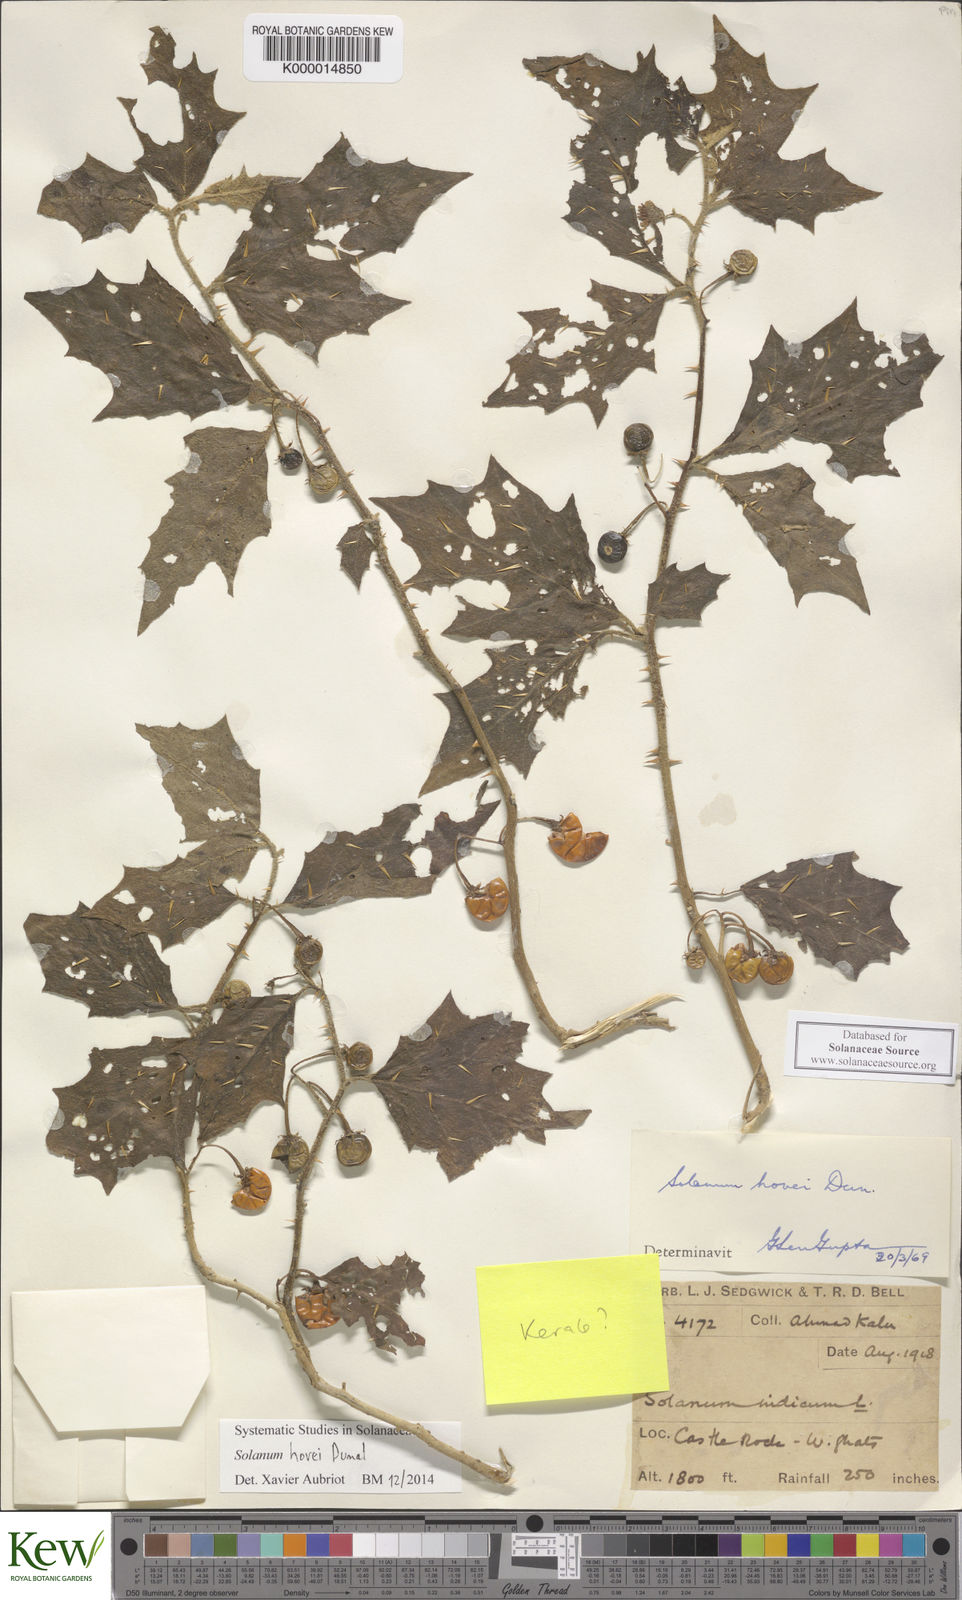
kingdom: Plantae
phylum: Tracheophyta
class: Magnoliopsida
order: Solanales
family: Solanaceae
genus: Solanum
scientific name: Solanum hovei
